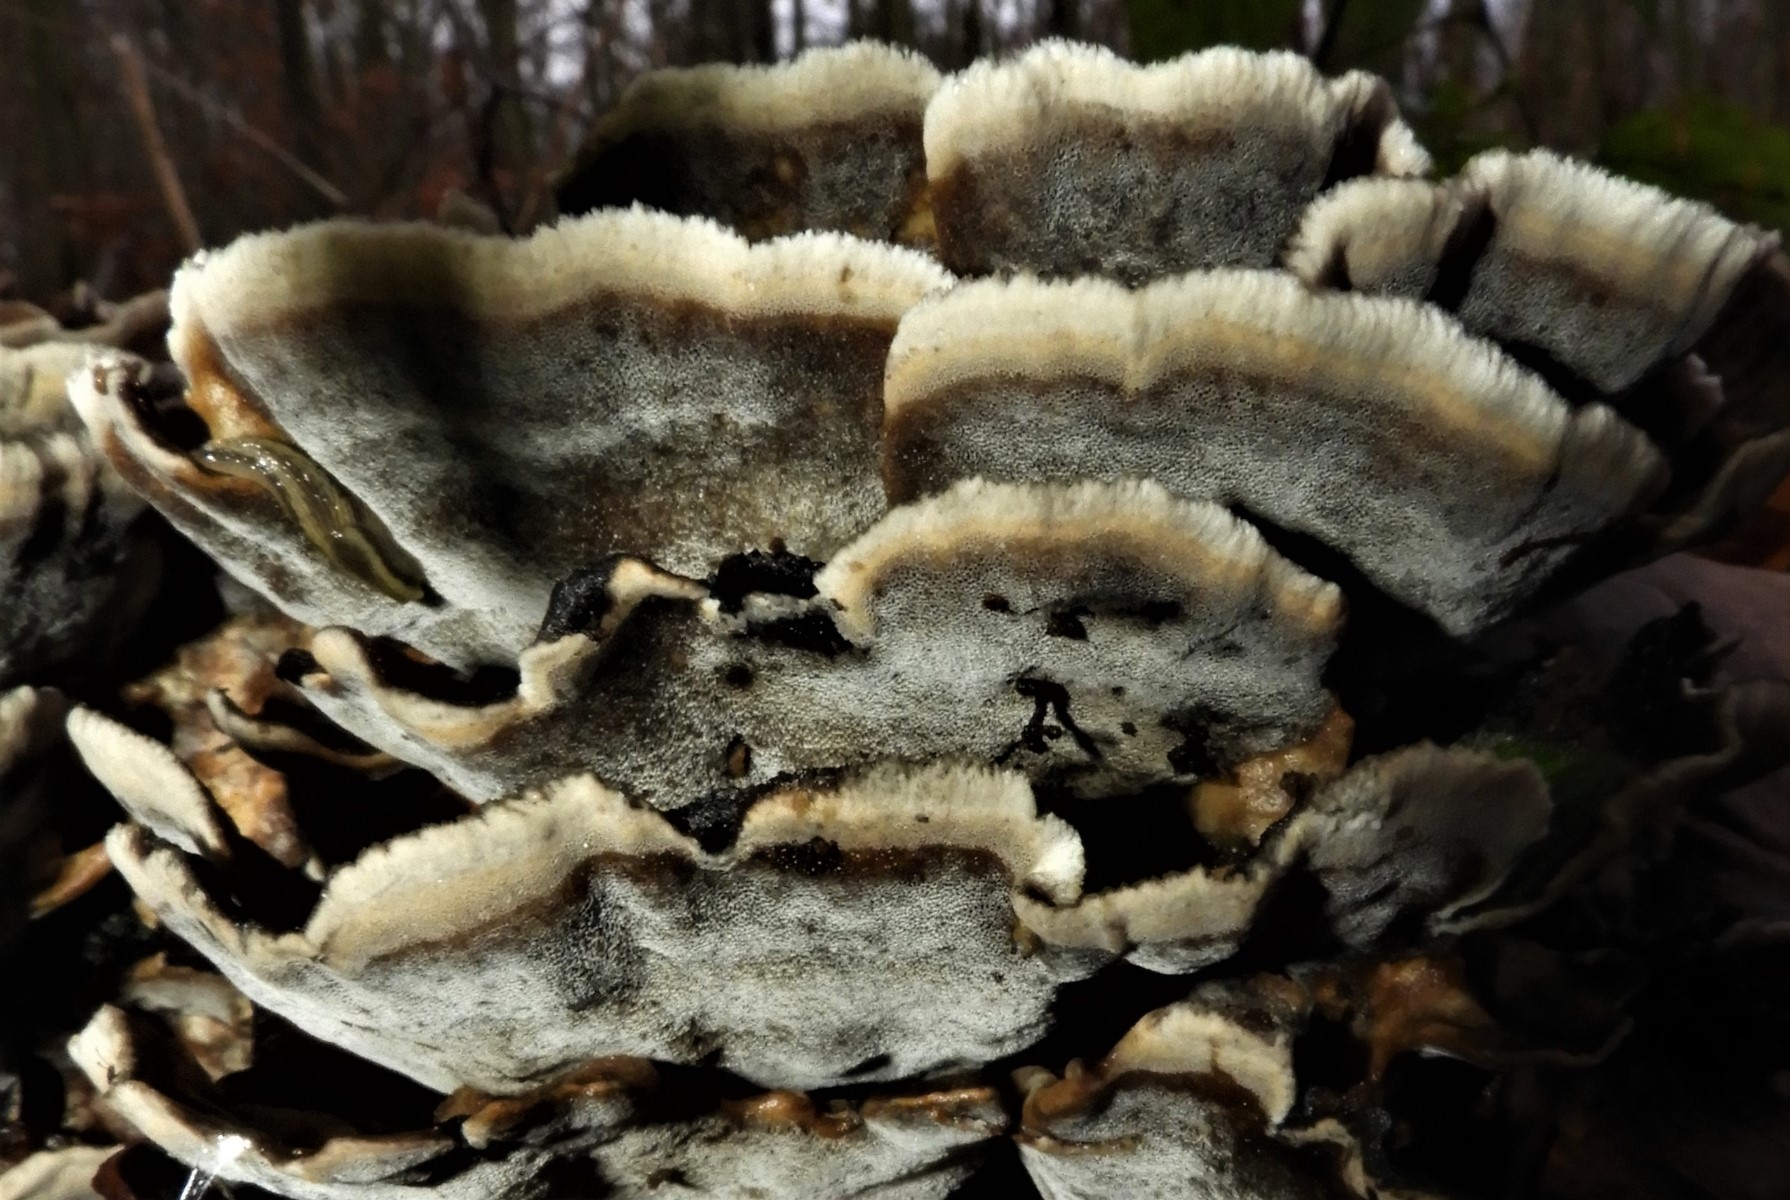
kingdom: Fungi
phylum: Basidiomycota
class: Agaricomycetes
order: Polyporales
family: Phanerochaetaceae
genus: Bjerkandera
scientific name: Bjerkandera adusta
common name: sveden sodporesvamp
